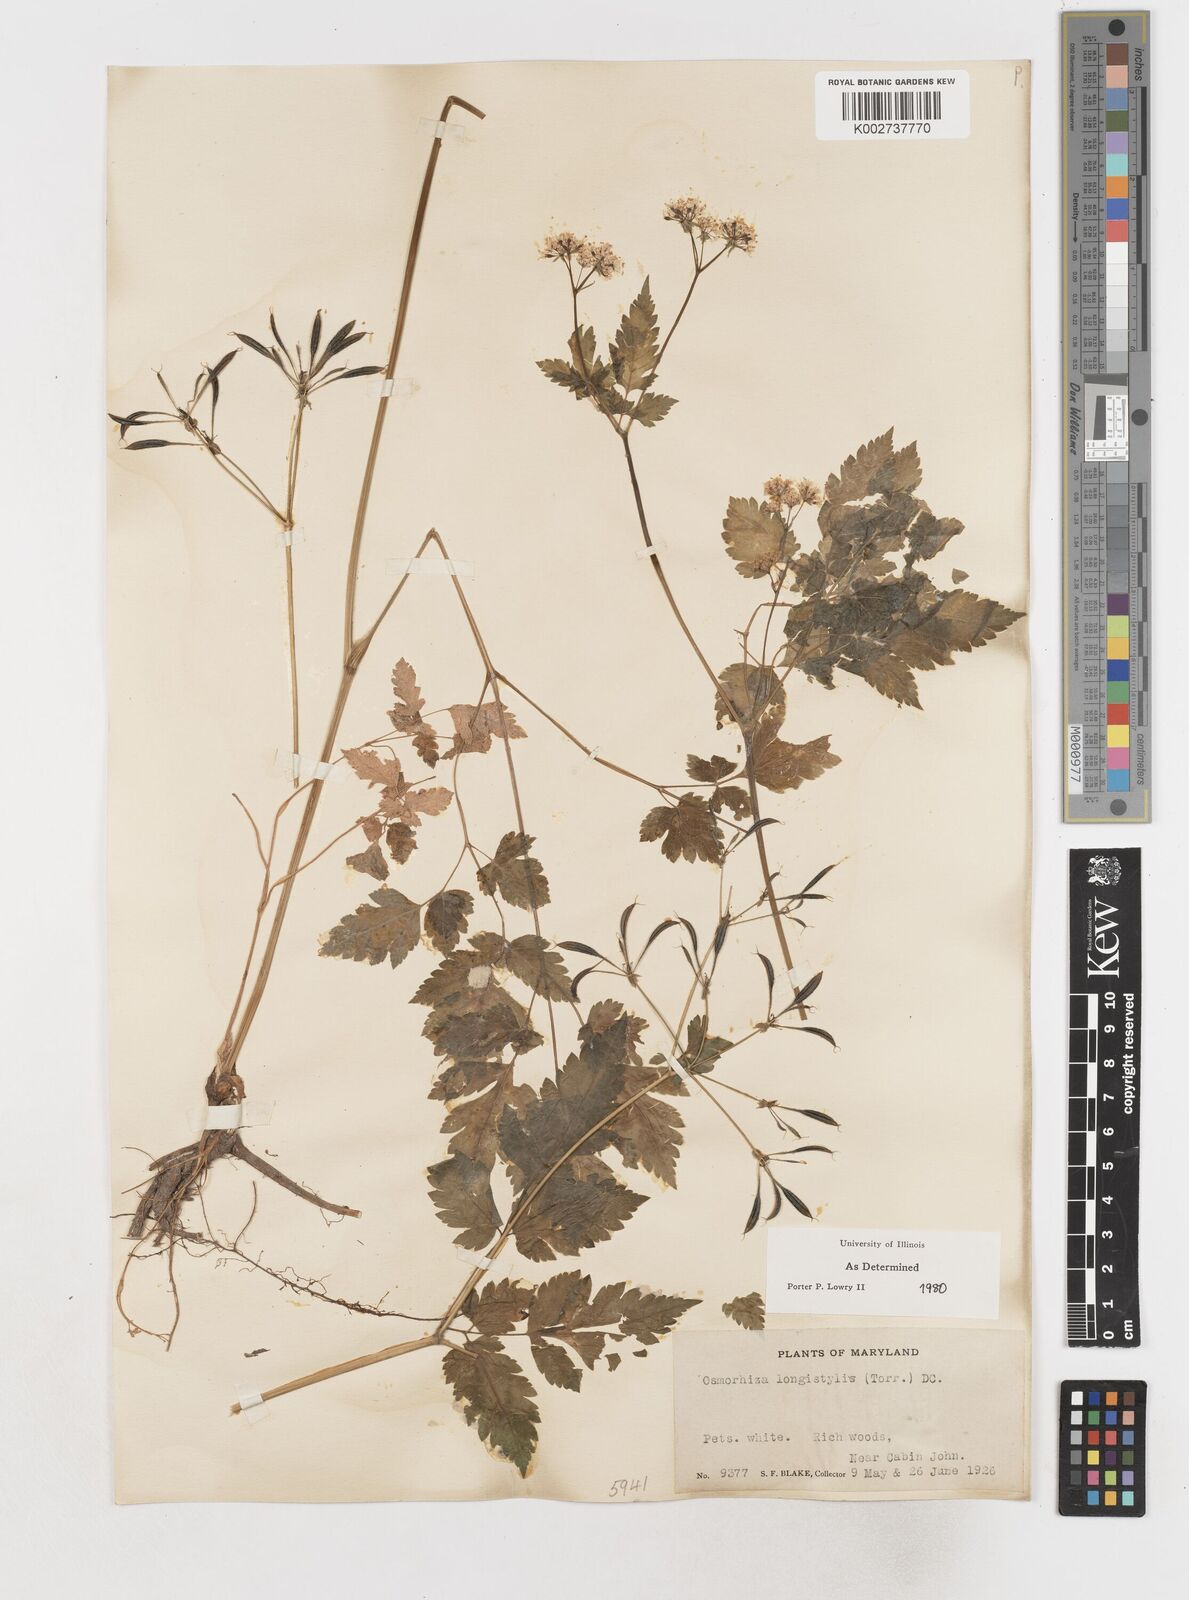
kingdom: Plantae
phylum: Tracheophyta
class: Magnoliopsida
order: Apiales
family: Apiaceae
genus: Osmorhiza
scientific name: Osmorhiza longistylis
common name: Smooth sweet cicely
